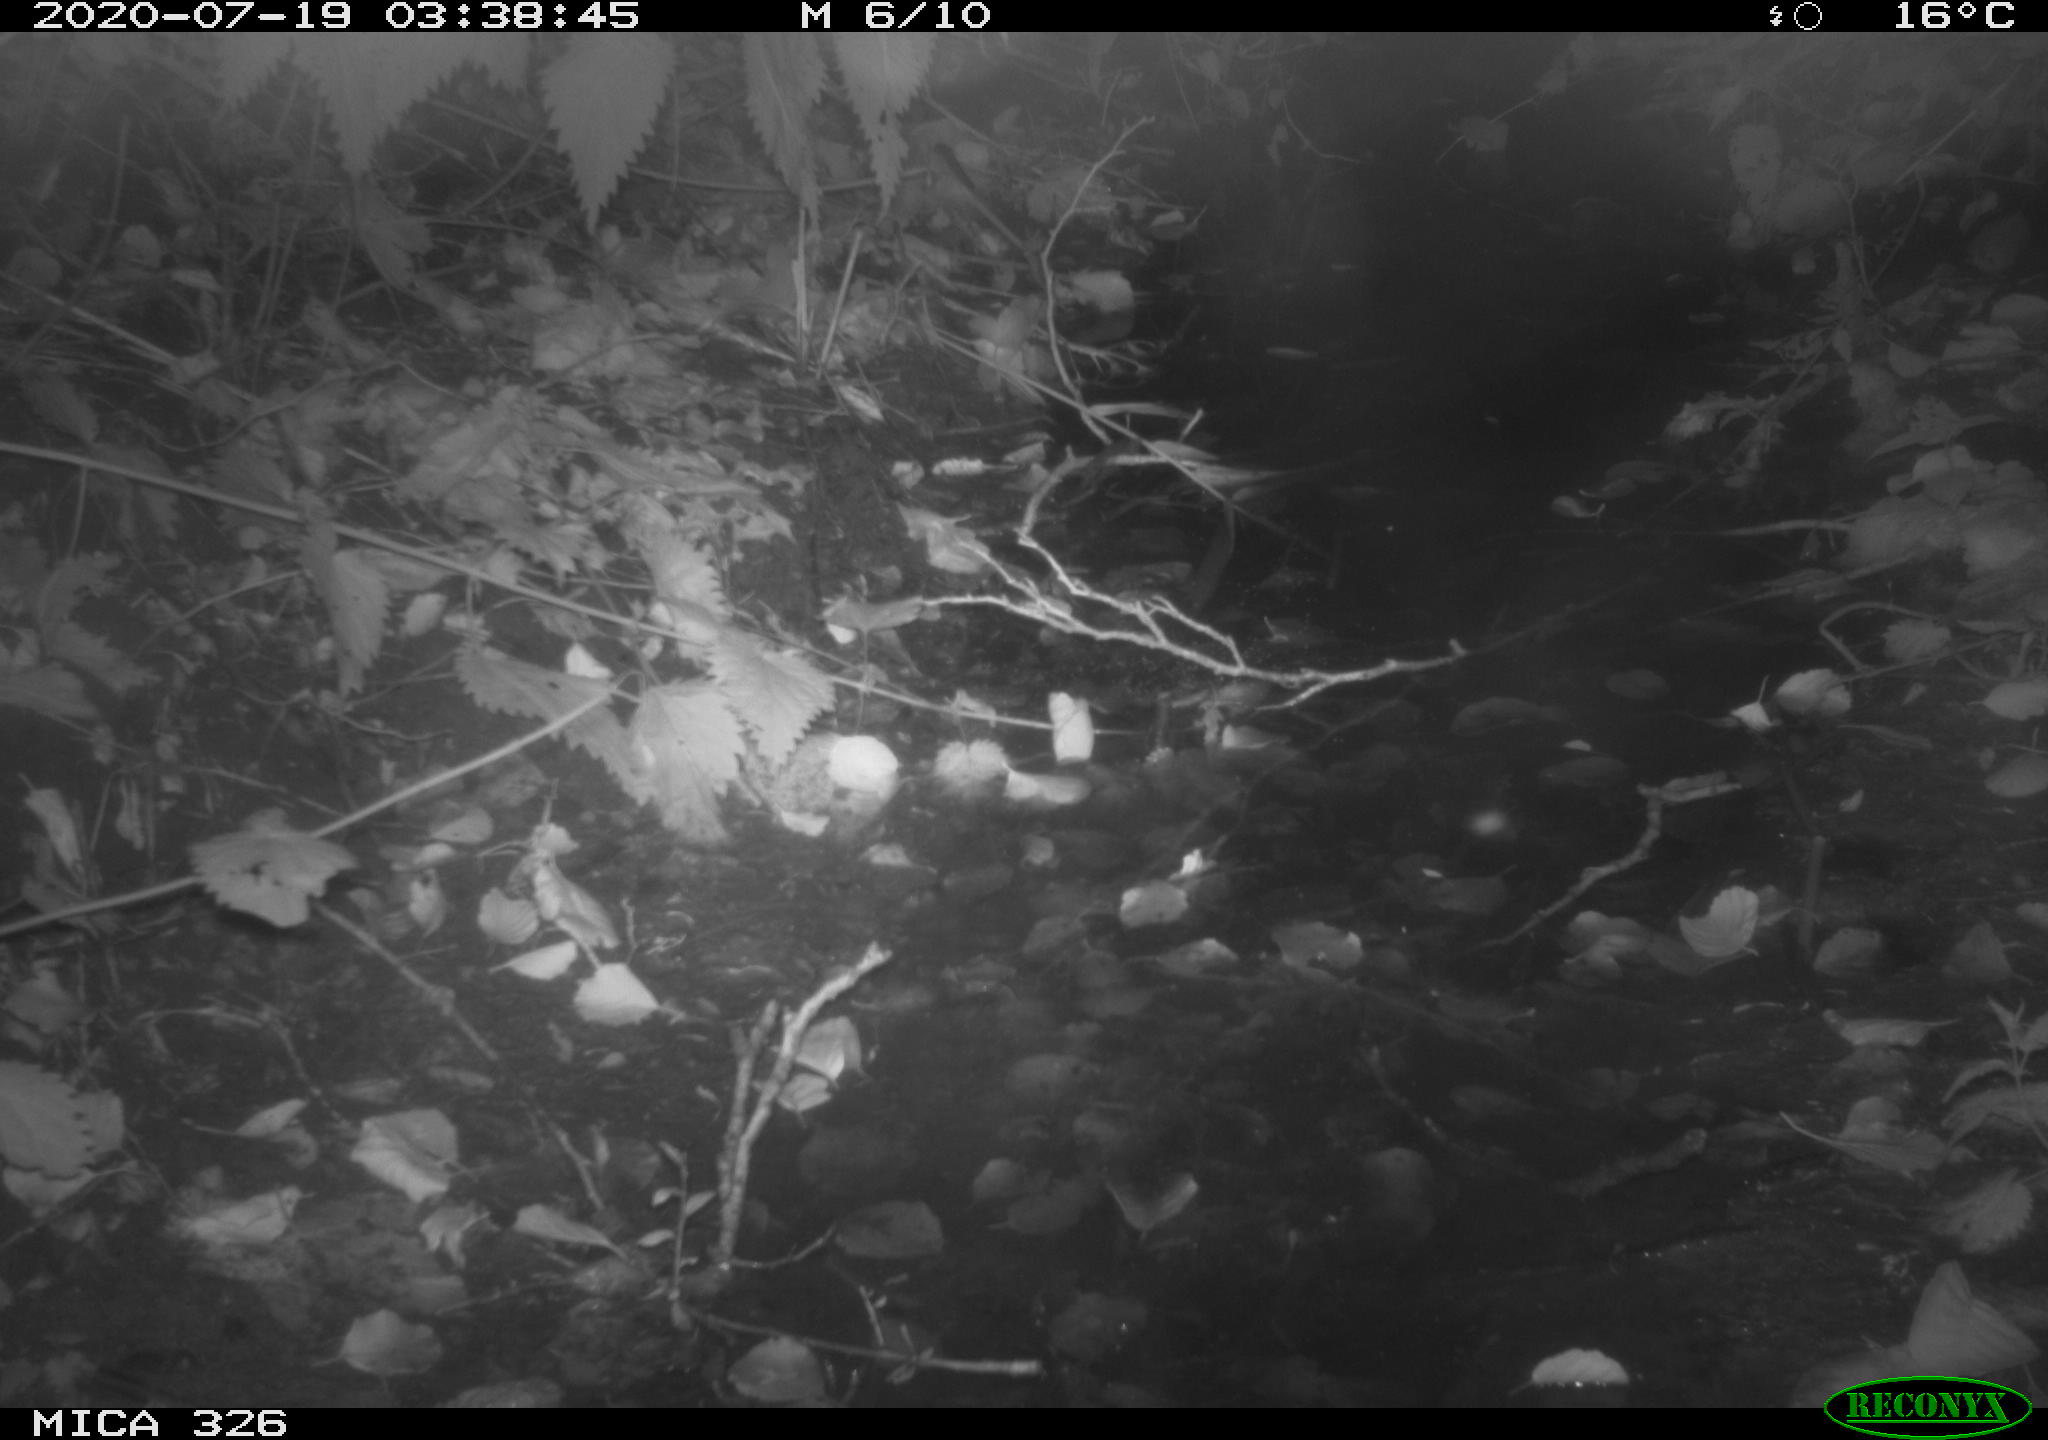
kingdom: Animalia
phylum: Chordata
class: Mammalia
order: Rodentia
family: Muridae
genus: Rattus
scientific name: Rattus norvegicus
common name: Brown rat
